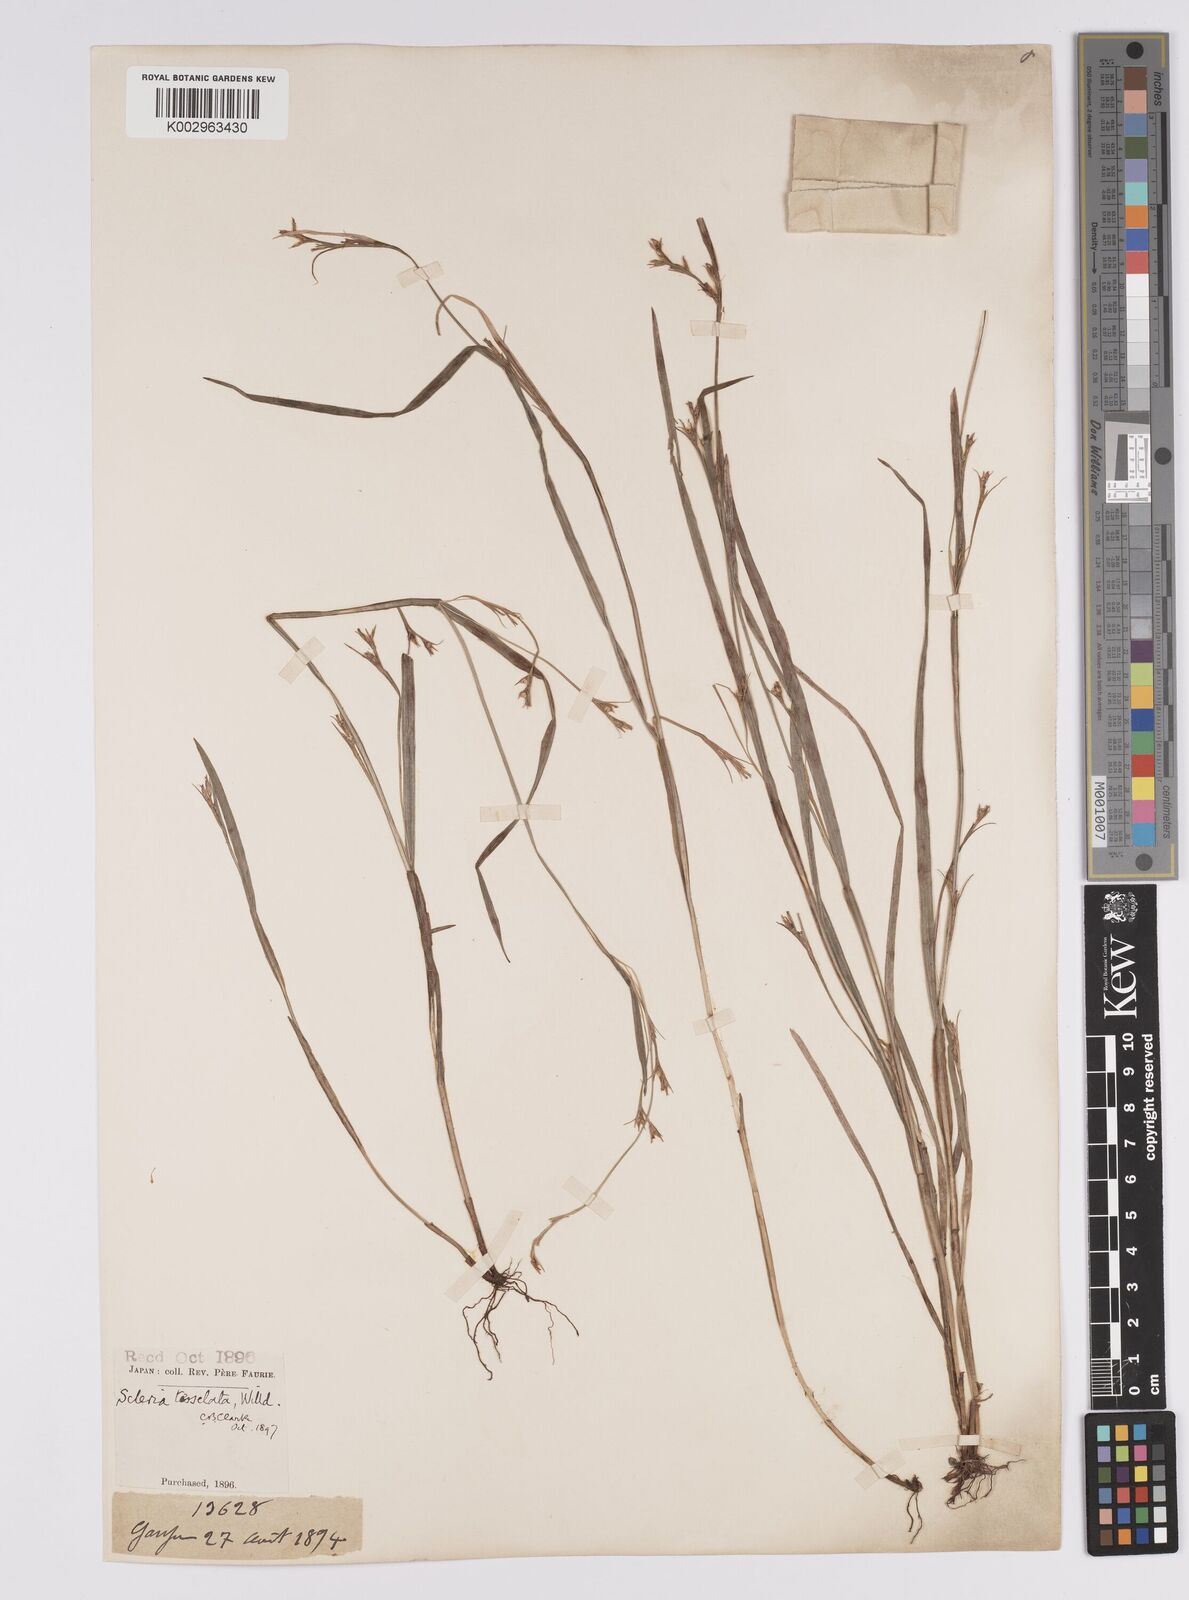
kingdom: Plantae
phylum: Tracheophyta
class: Liliopsida
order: Poales
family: Cyperaceae
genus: Scleria
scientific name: Scleria tessellata
